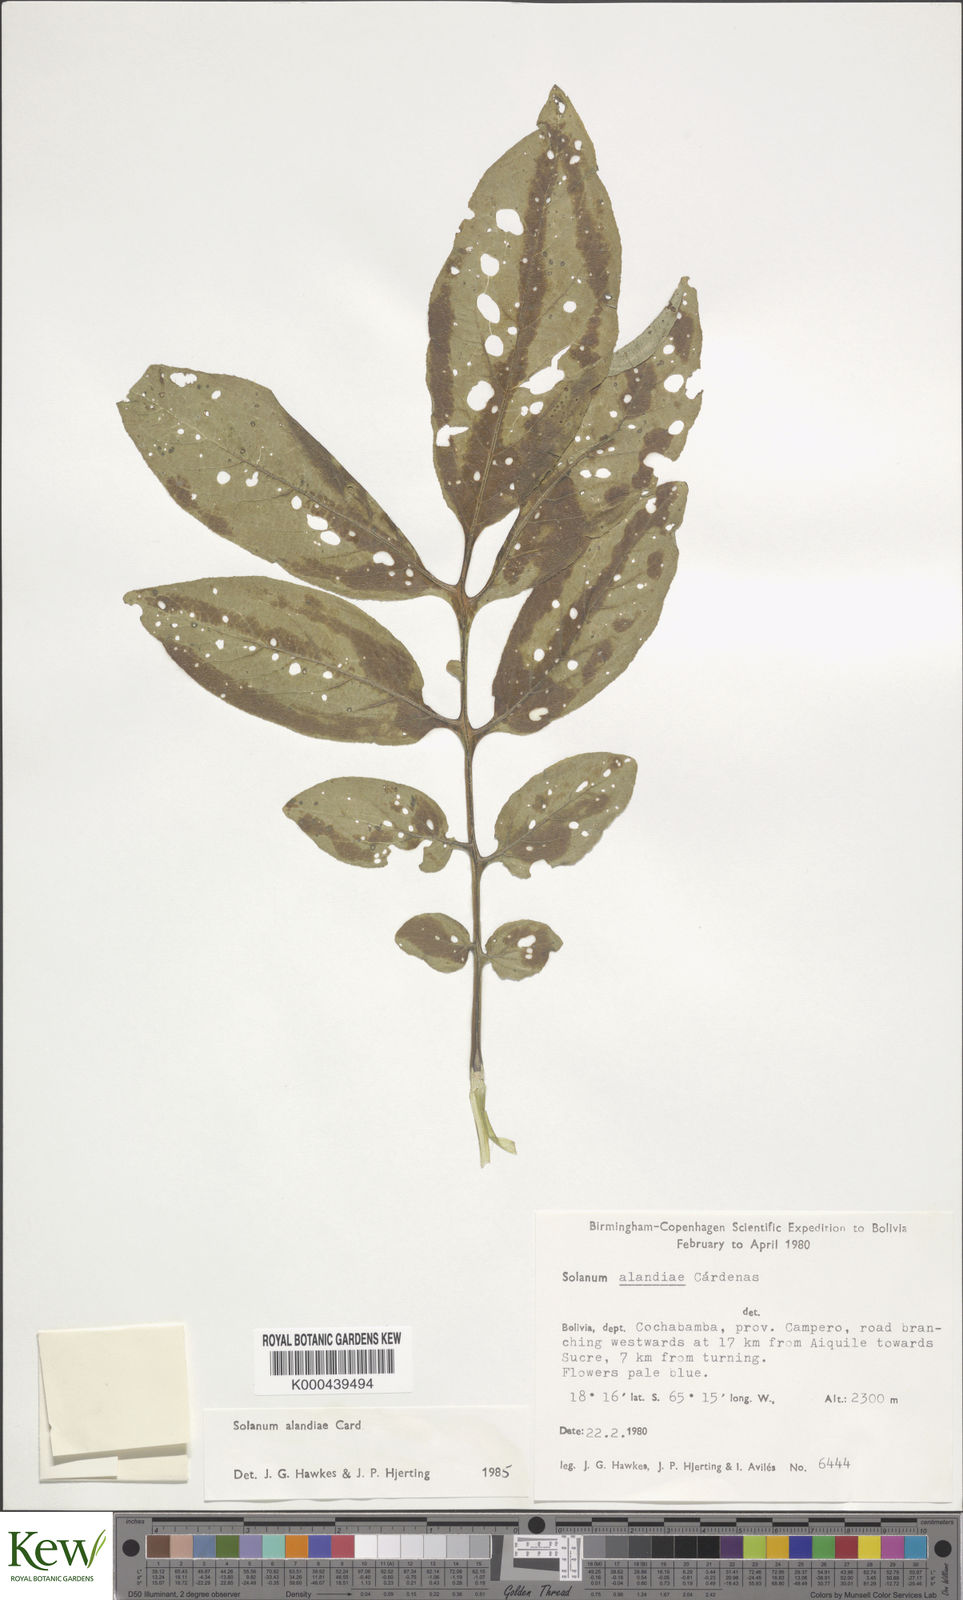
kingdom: Plantae
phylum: Tracheophyta
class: Magnoliopsida
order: Solanales
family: Solanaceae
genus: Solanum
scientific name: Solanum brevicaule
